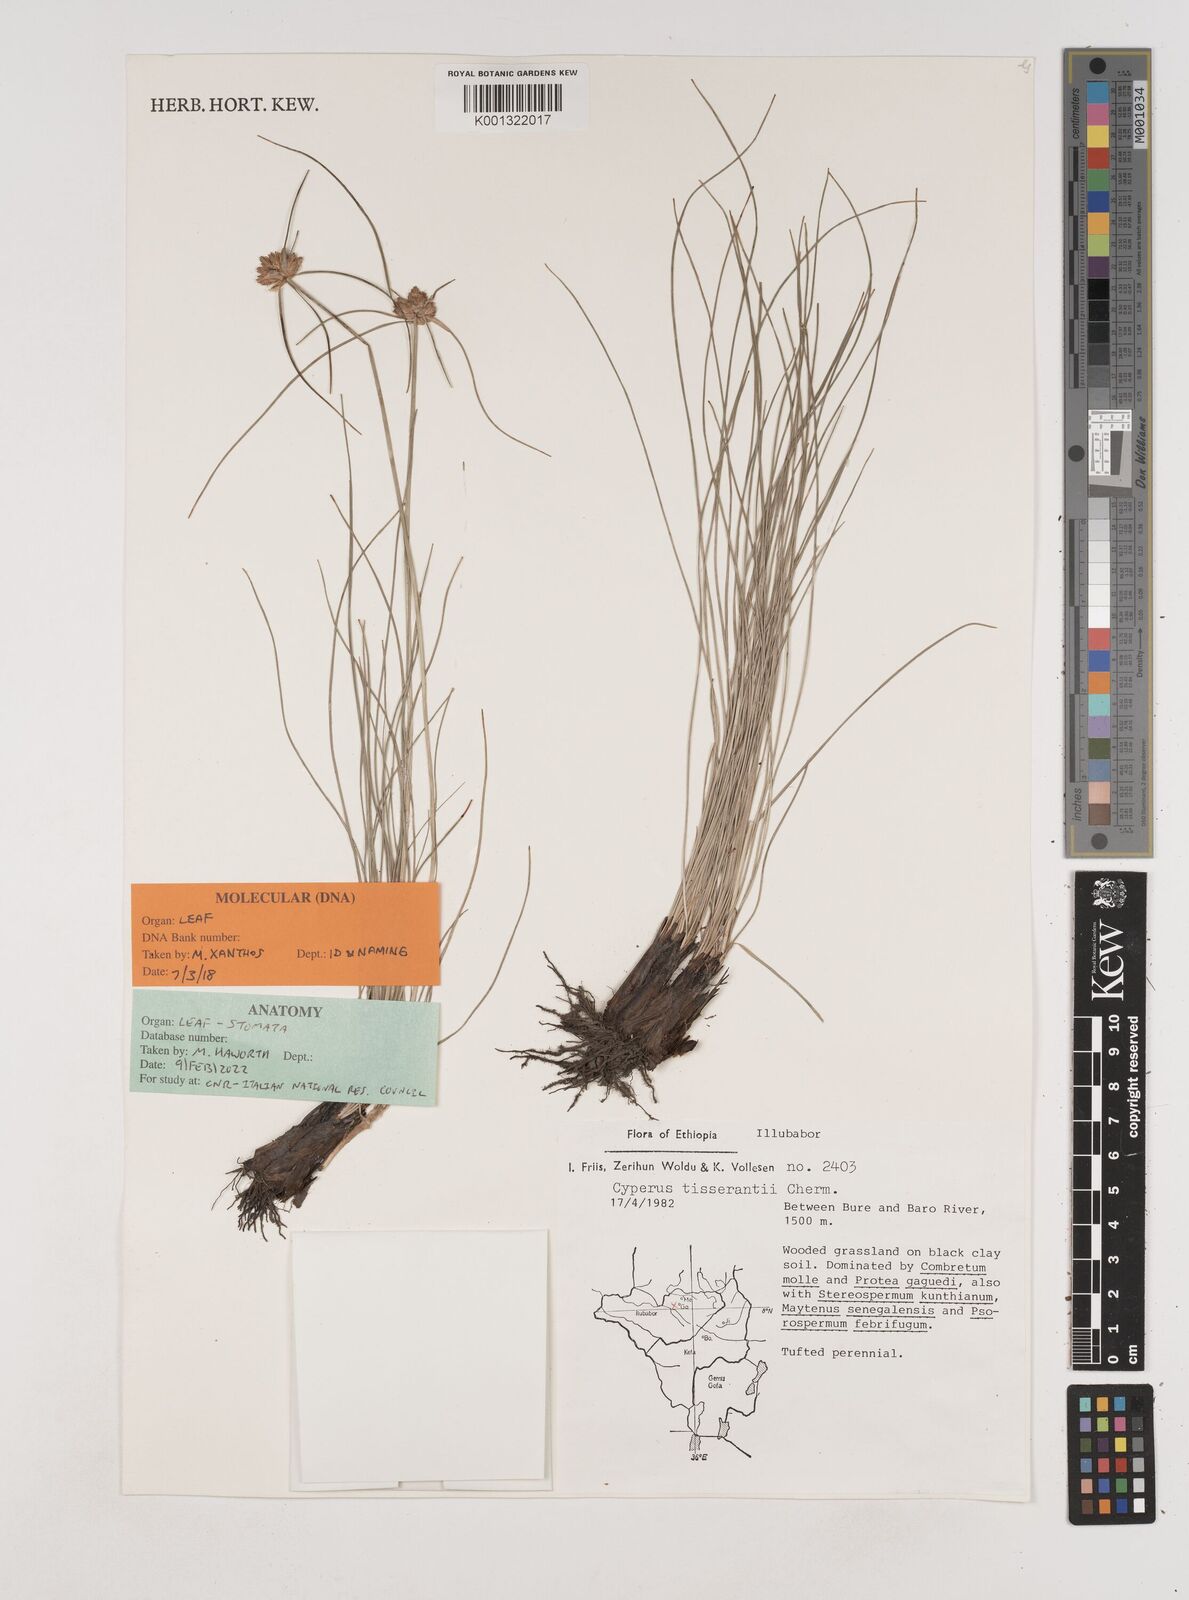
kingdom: Plantae
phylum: Tracheophyta
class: Liliopsida
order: Poales
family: Cyperaceae
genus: Cyperus
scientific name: Cyperus niveus
